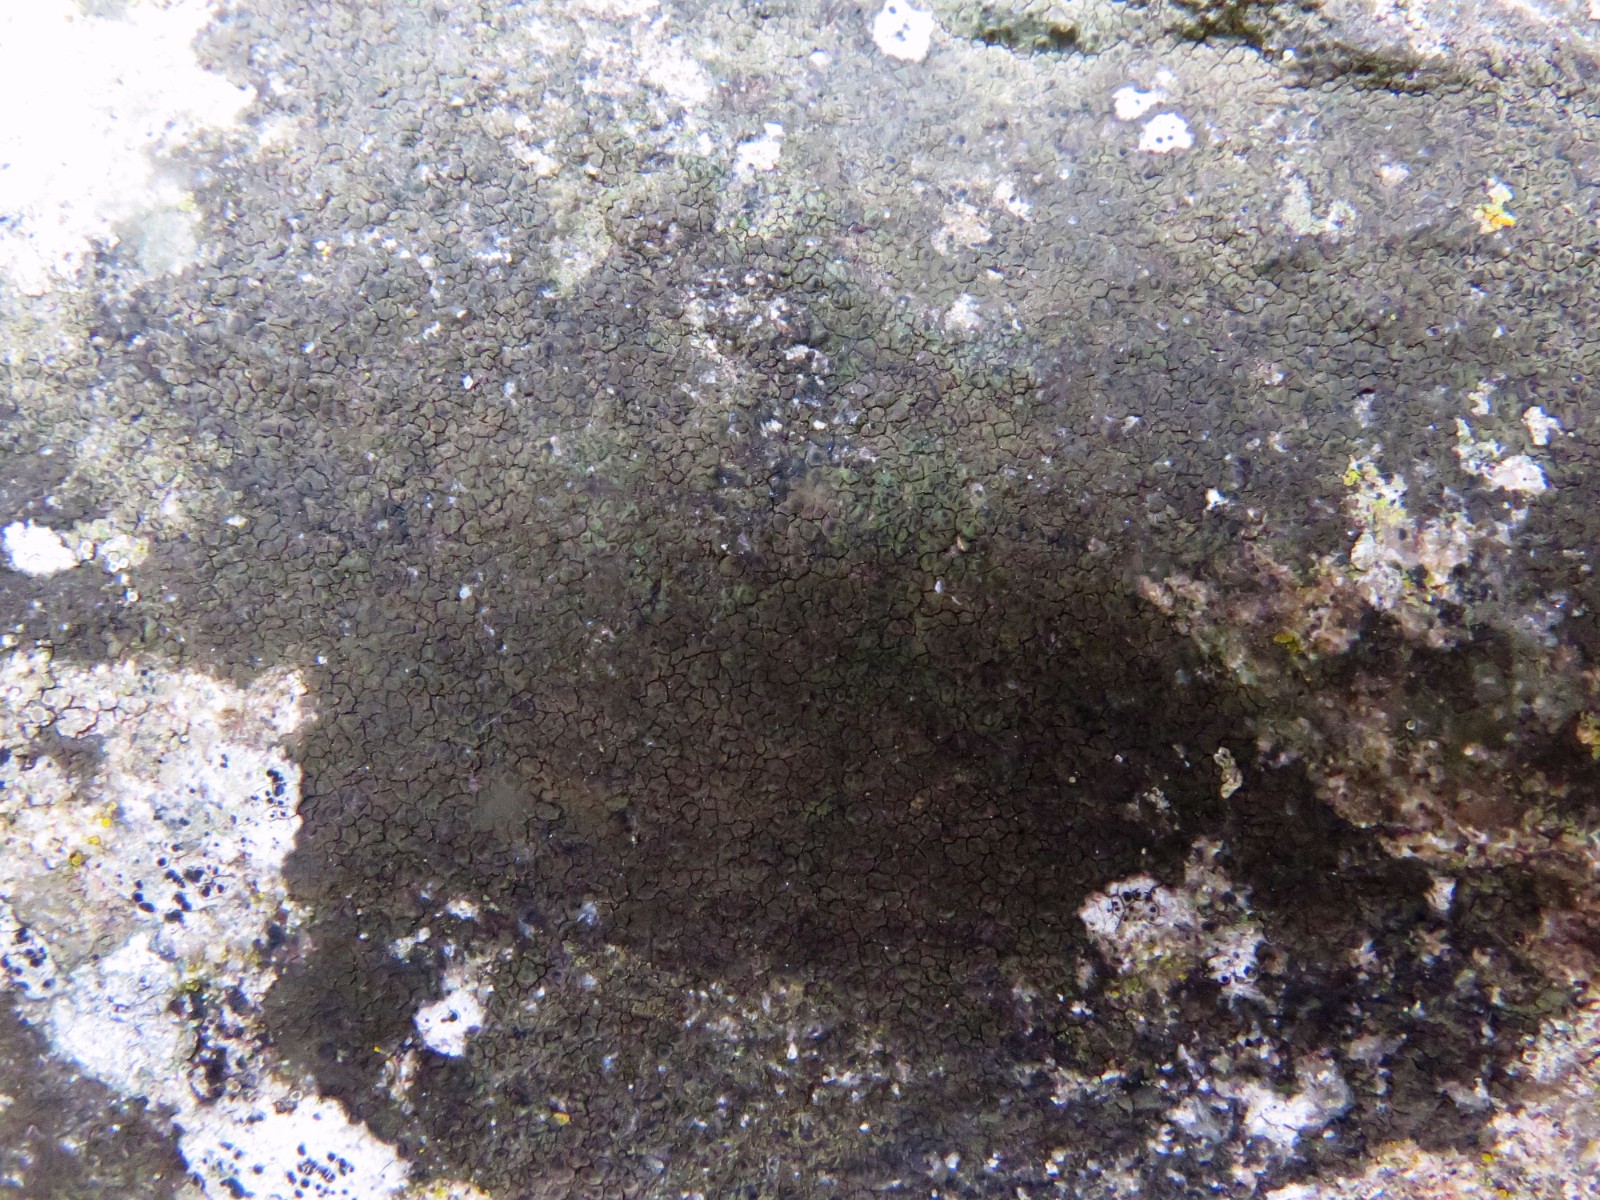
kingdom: Fungi
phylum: Ascomycota
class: Eurotiomycetes
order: Verrucariales
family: Verrucariaceae
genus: Verrucaria
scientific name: Verrucaria nigrescens
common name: sortbrun vortelav
